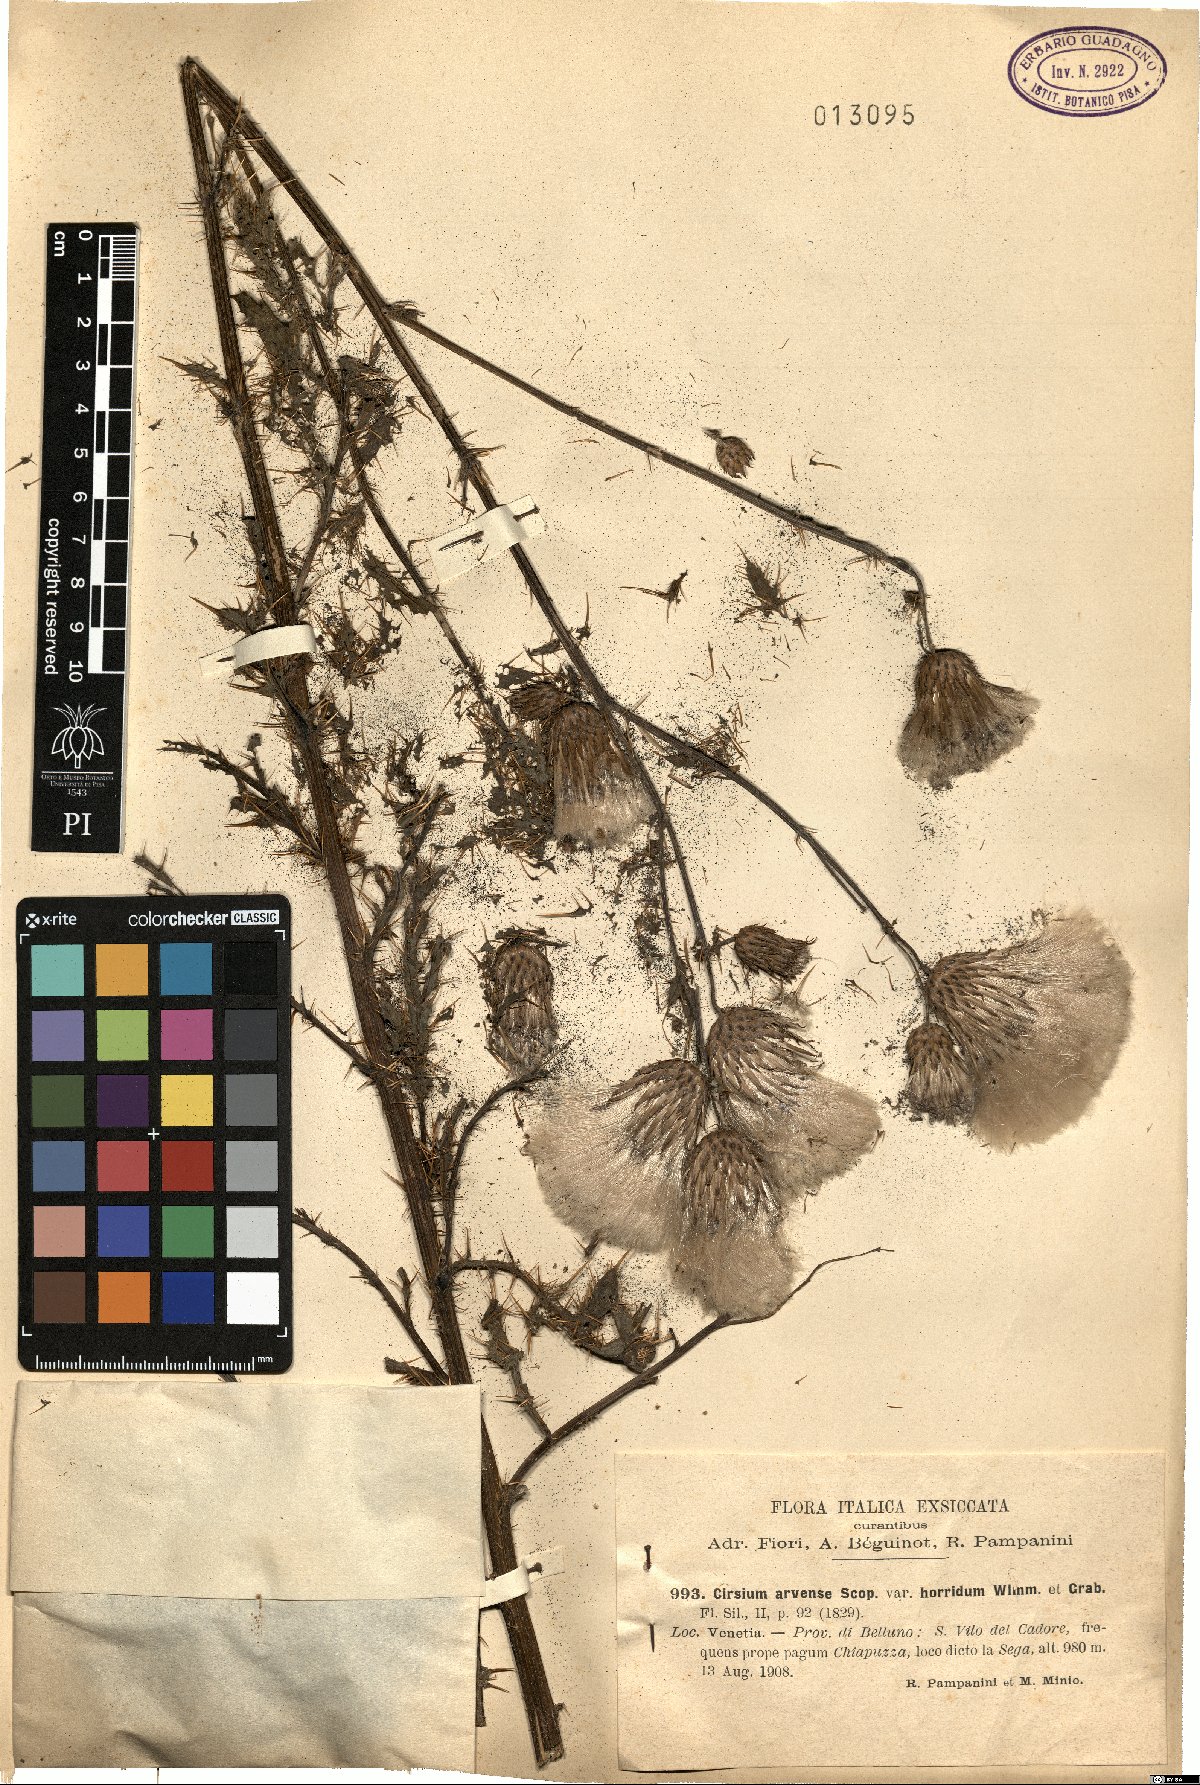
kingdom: Plantae
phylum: Tracheophyta
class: Magnoliopsida
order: Asterales
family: Asteraceae
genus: Cirsium
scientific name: Cirsium arvense
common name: Creeping thistle
